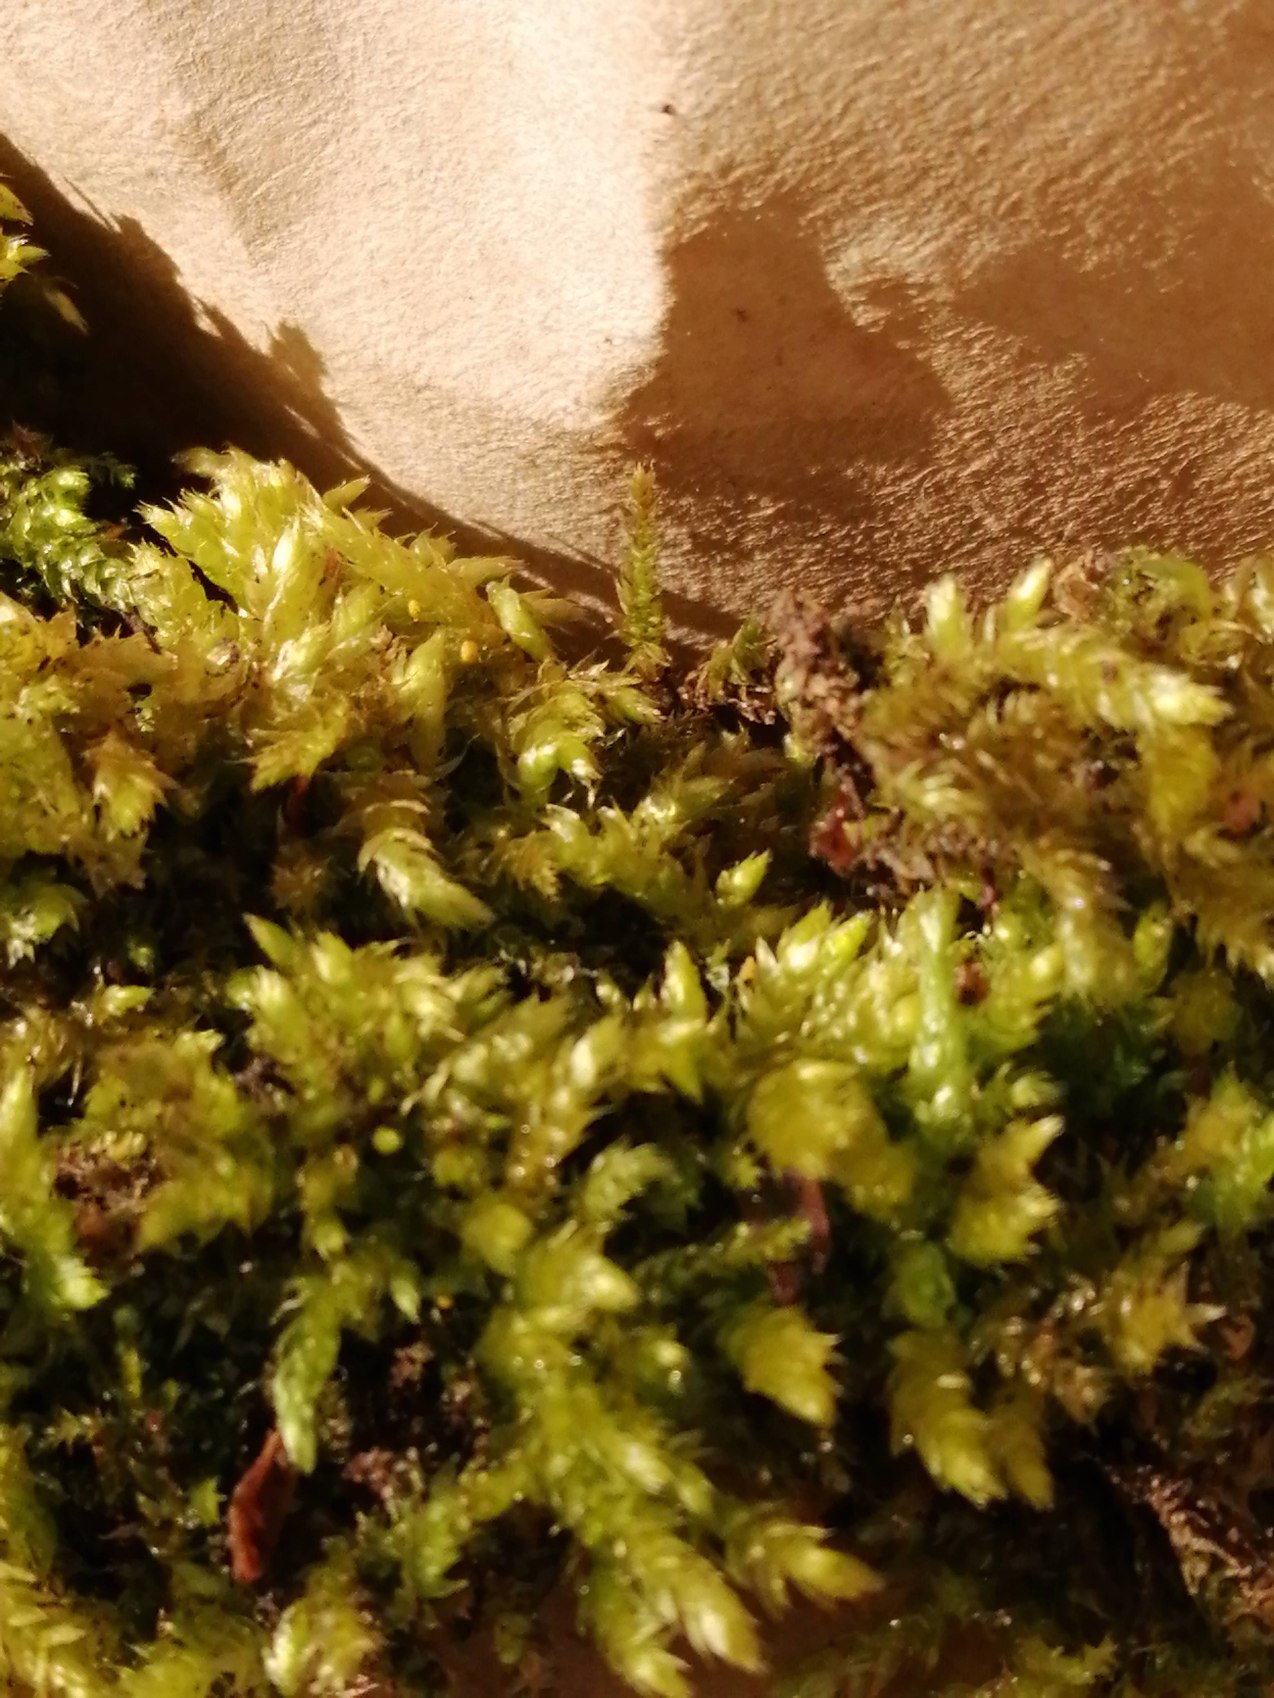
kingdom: Plantae
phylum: Bryophyta
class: Bryopsida
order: Hypnales
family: Brachytheciaceae
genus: Brachythecium
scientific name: Brachythecium rutabulum
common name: Almindelig kortkapsel
